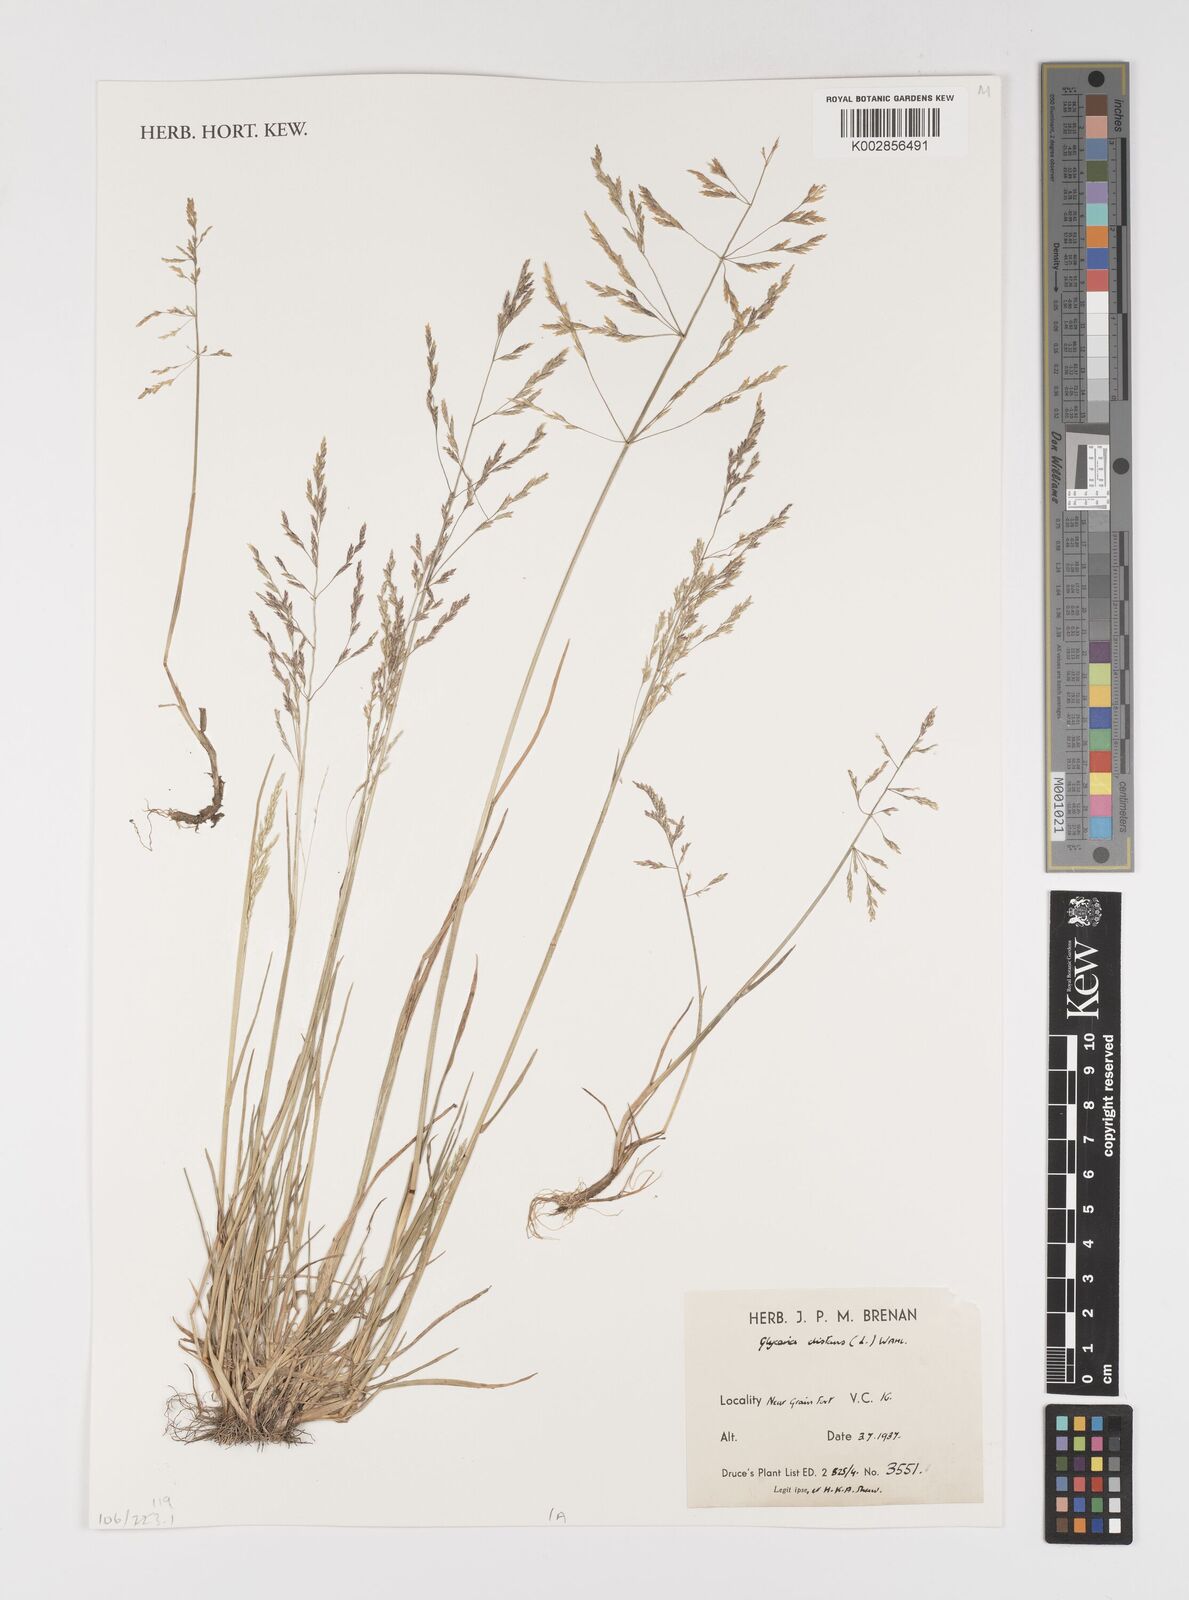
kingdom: Plantae
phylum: Tracheophyta
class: Liliopsida
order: Poales
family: Poaceae
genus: Puccinellia
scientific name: Puccinellia distans
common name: Weeping alkaligrass
